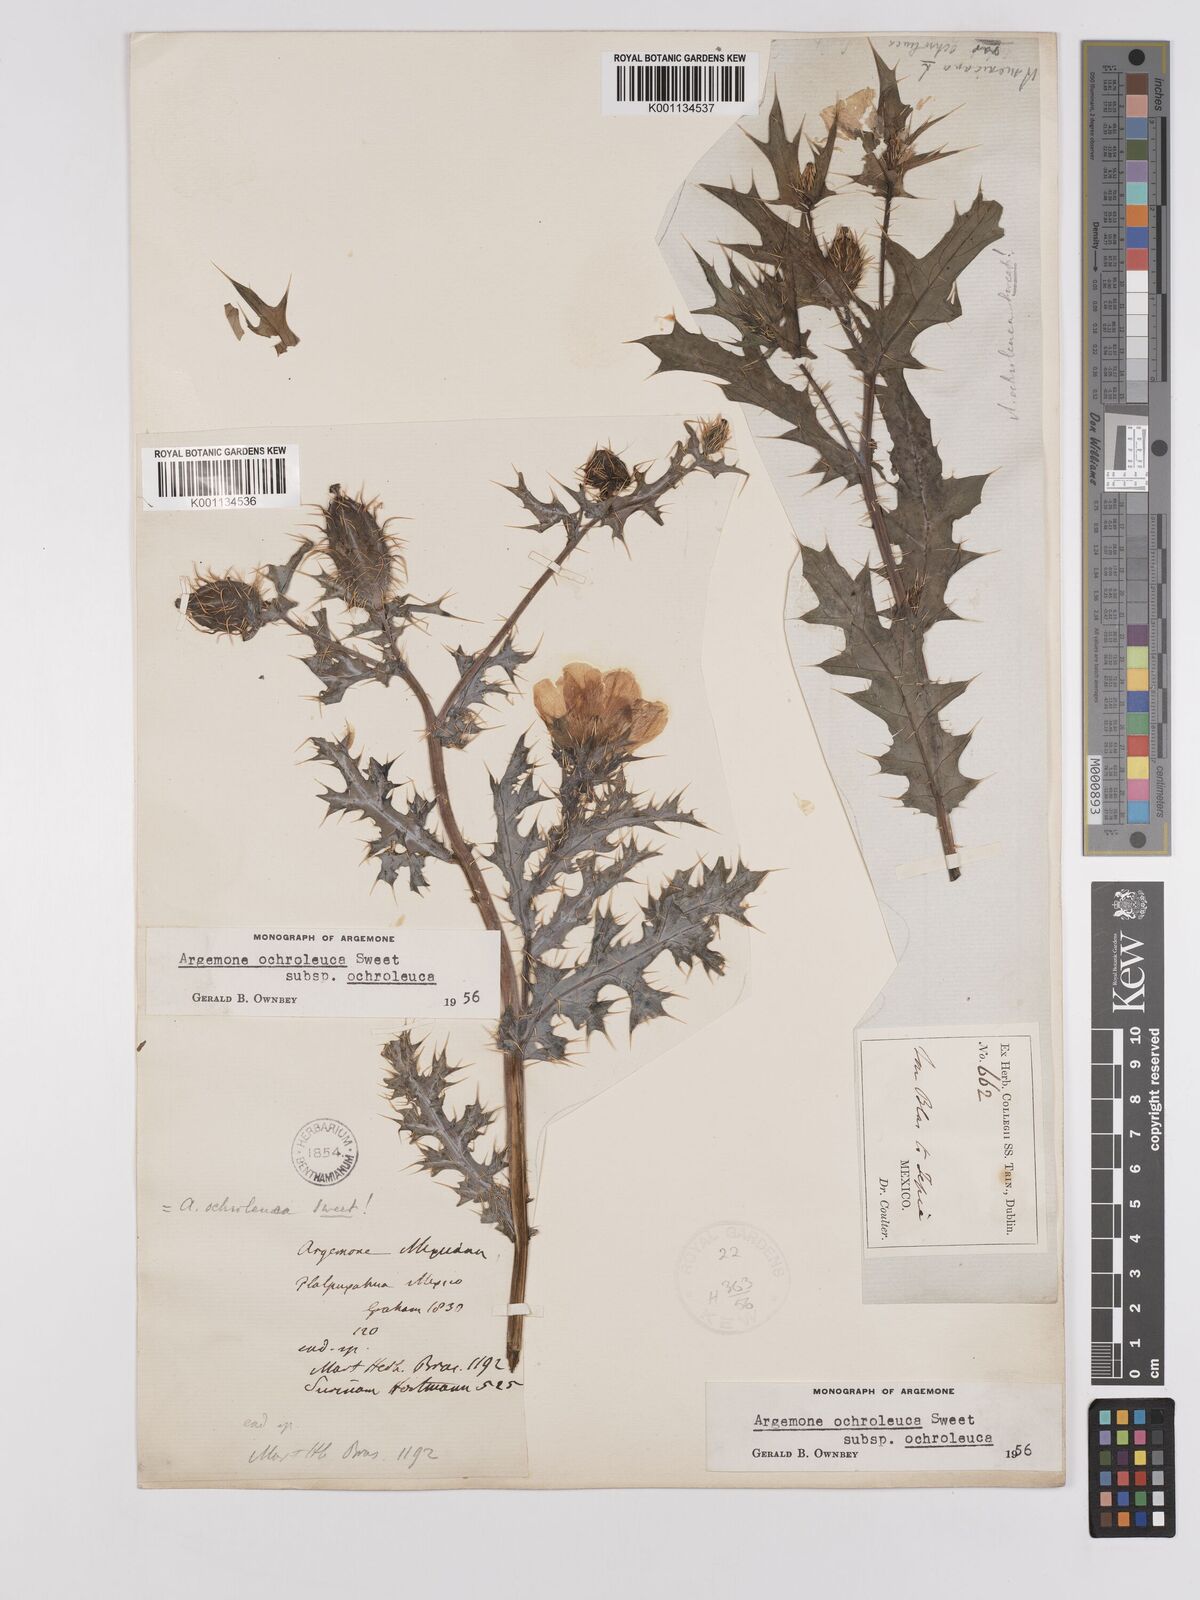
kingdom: Plantae
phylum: Tracheophyta
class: Magnoliopsida
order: Ranunculales
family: Papaveraceae
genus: Argemone
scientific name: Argemone ochroleuca
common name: White-flower mexican-poppy
